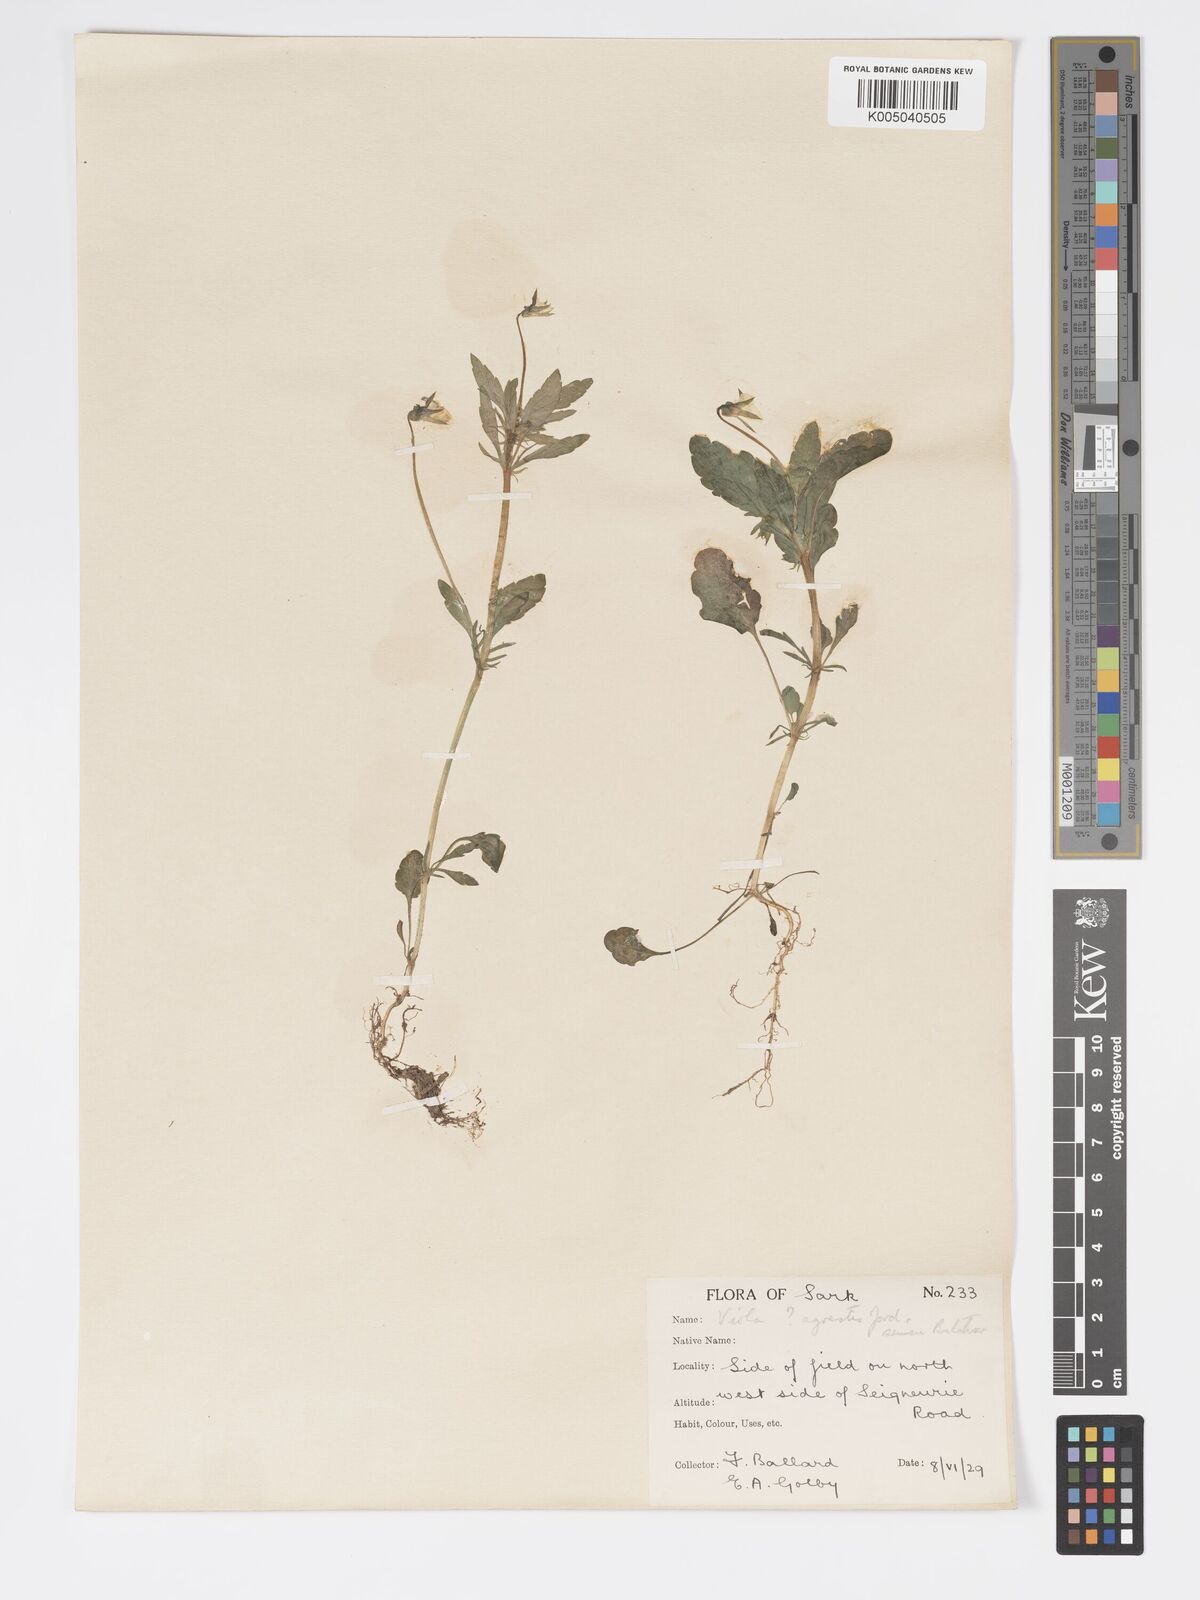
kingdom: Plantae
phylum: Tracheophyta
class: Magnoliopsida
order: Malpighiales
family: Violaceae
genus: Viola
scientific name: Viola arvensis
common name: Field pansy
